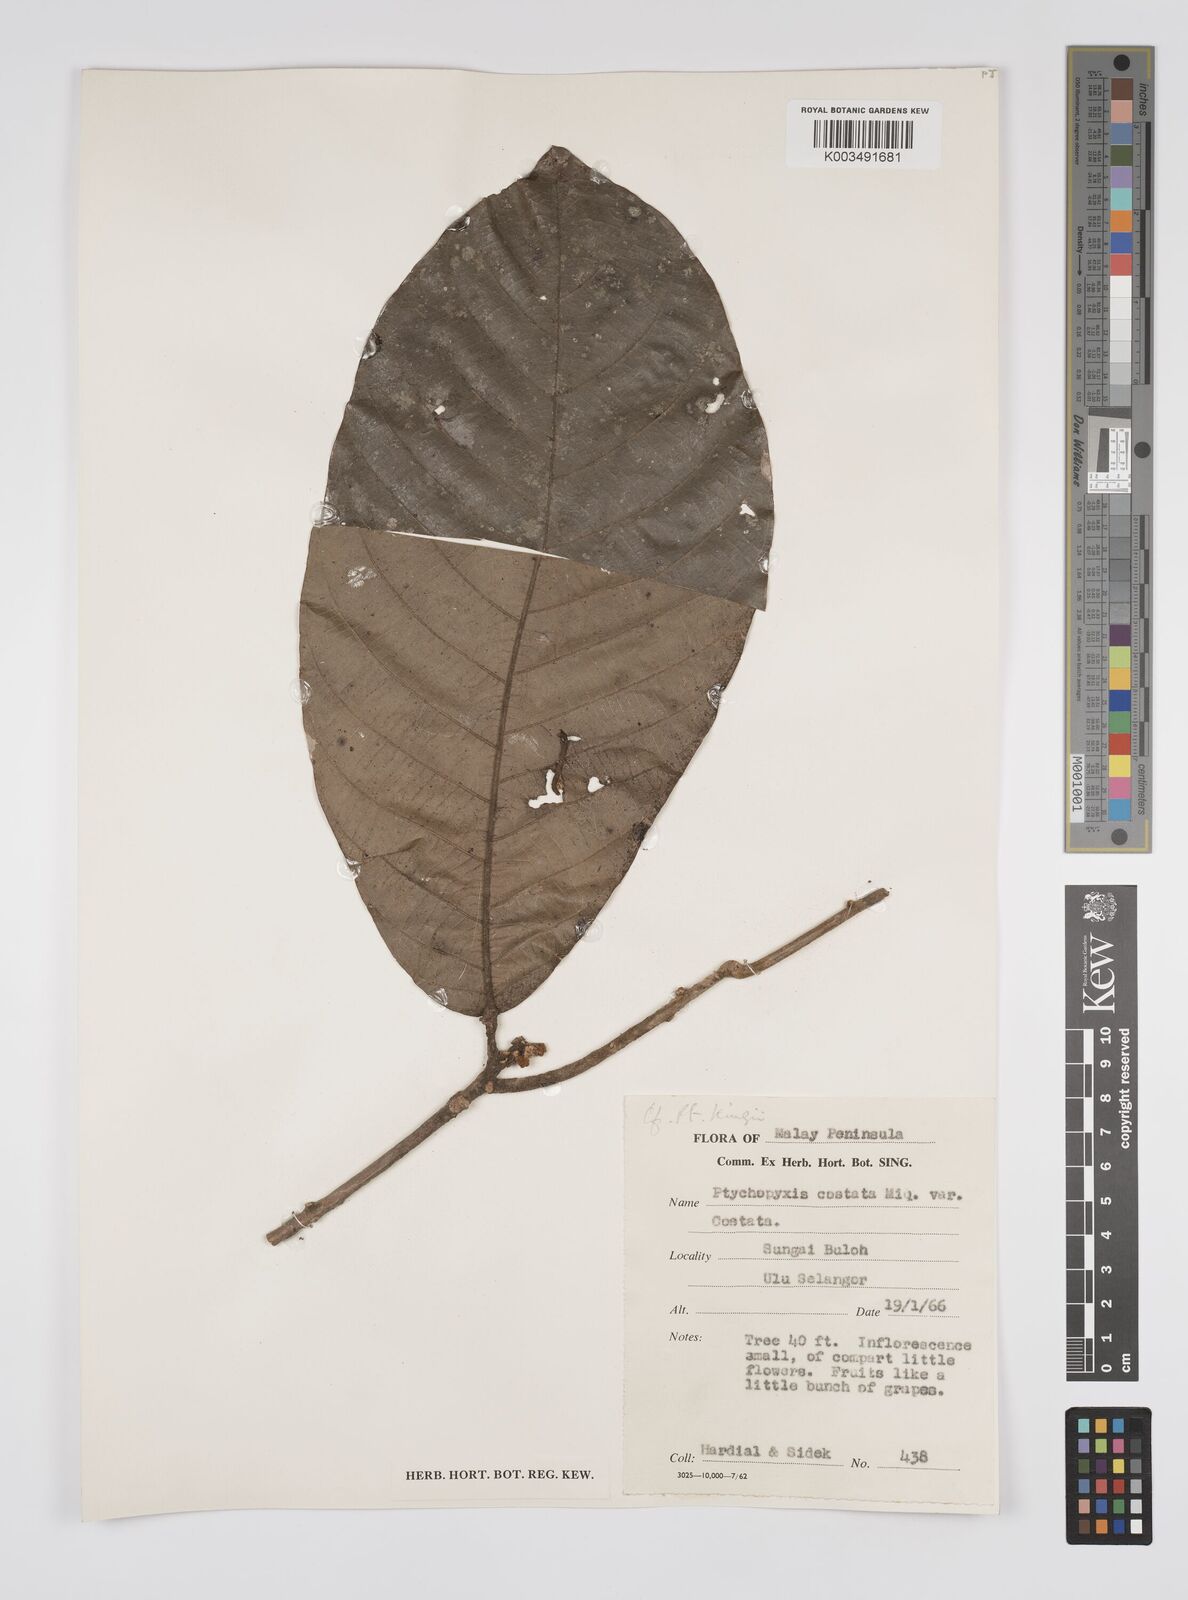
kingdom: Plantae
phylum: Tracheophyta
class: Magnoliopsida
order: Malpighiales
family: Euphorbiaceae
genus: Ptychopyxis
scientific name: Ptychopyxis kingii
